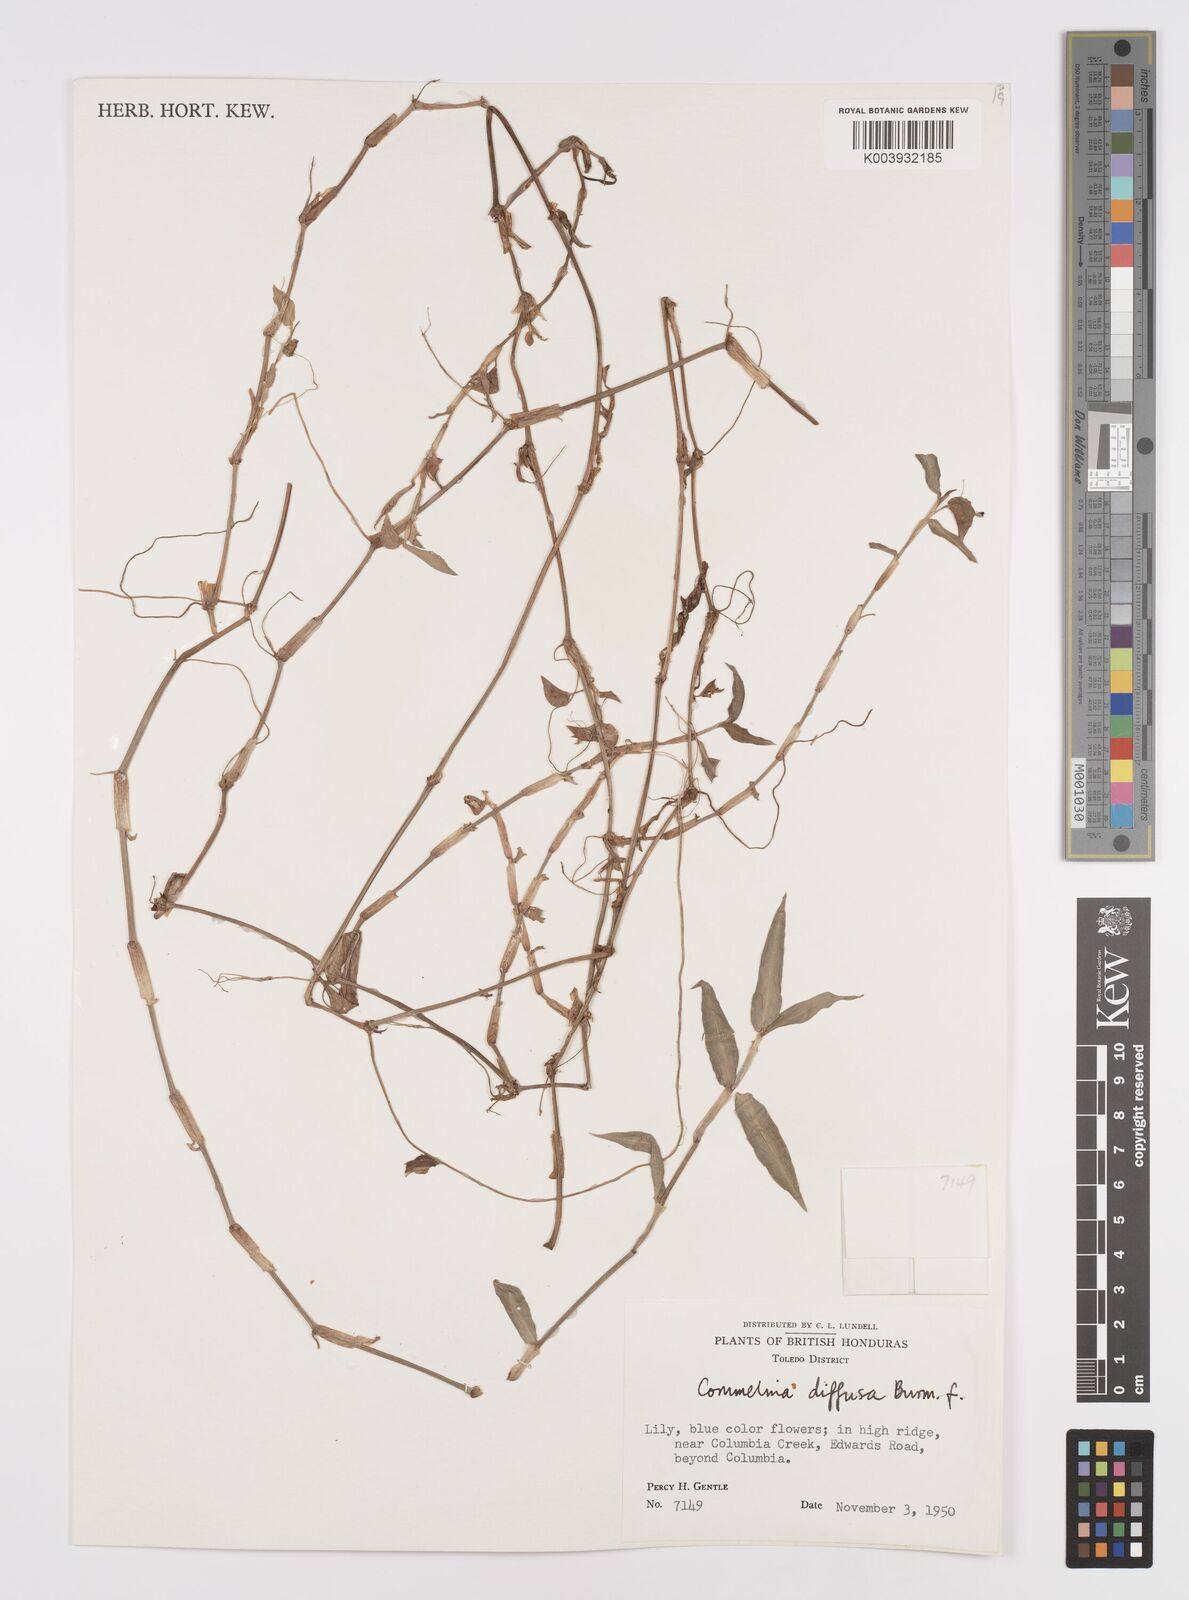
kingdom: Plantae
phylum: Tracheophyta
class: Liliopsida
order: Commelinales
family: Commelinaceae
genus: Commelina
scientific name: Commelina diffusa
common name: Climbing dayflower
